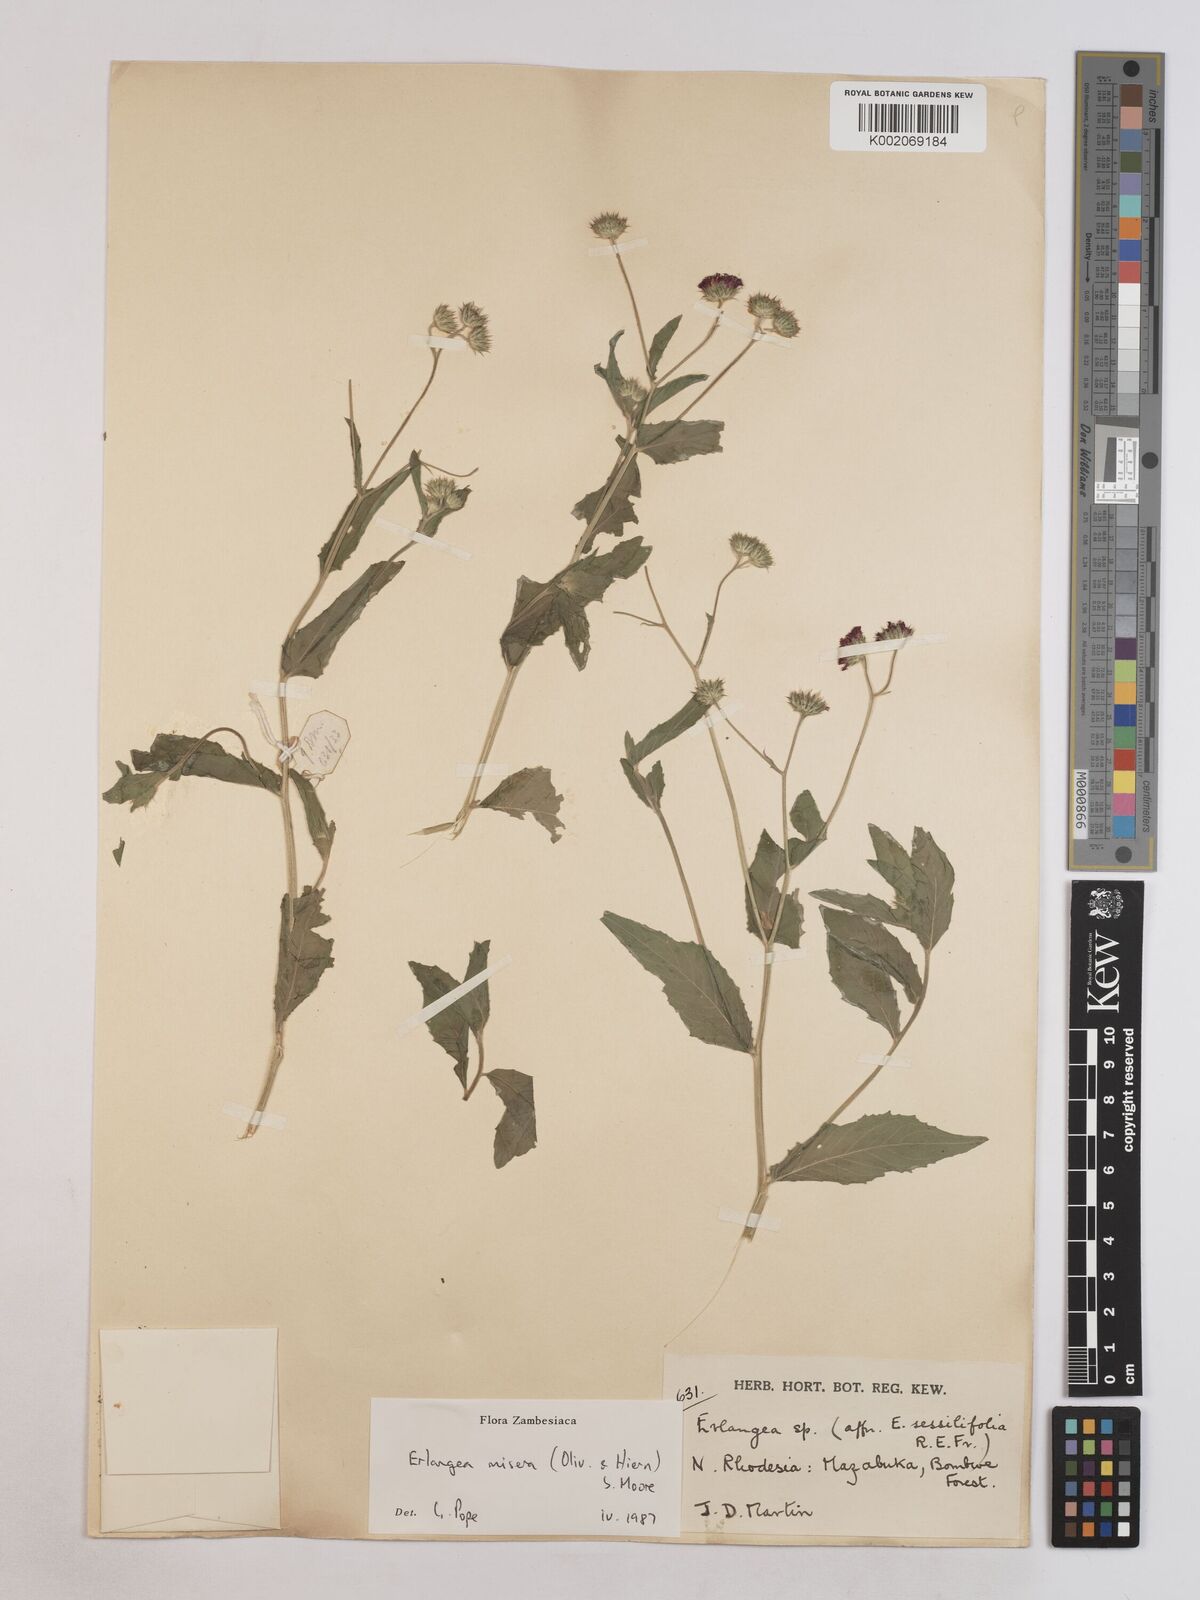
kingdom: Plantae
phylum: Tracheophyta
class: Magnoliopsida
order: Asterales
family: Asteraceae
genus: Erlangea
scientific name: Erlangea misera
